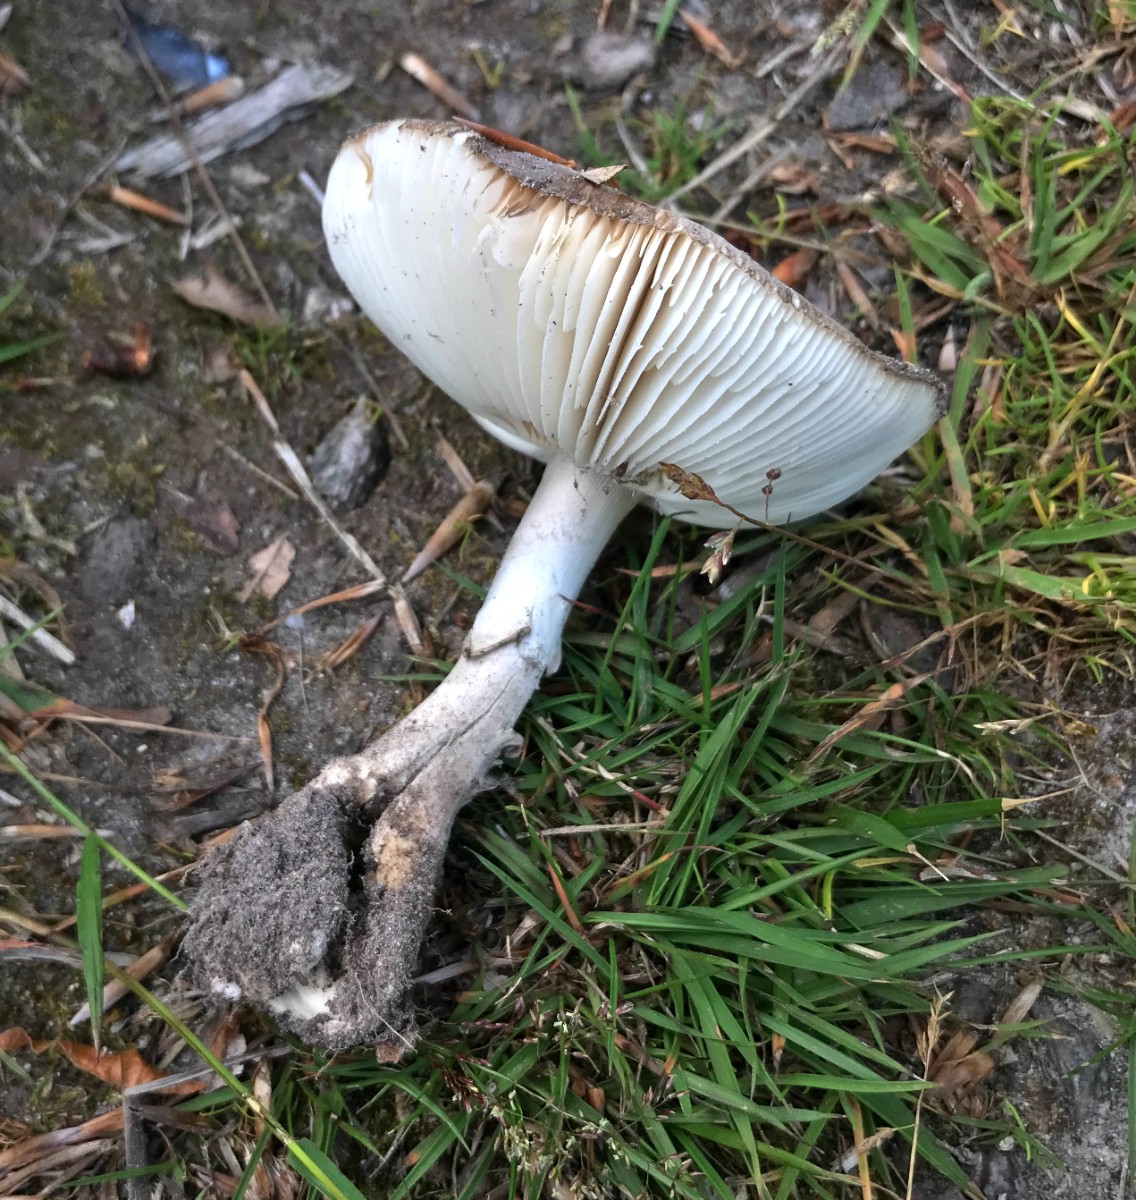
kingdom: Fungi
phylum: Basidiomycota
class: Agaricomycetes
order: Agaricales
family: Amanitaceae
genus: Amanita
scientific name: Amanita pantherina
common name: panter-fluesvamp
